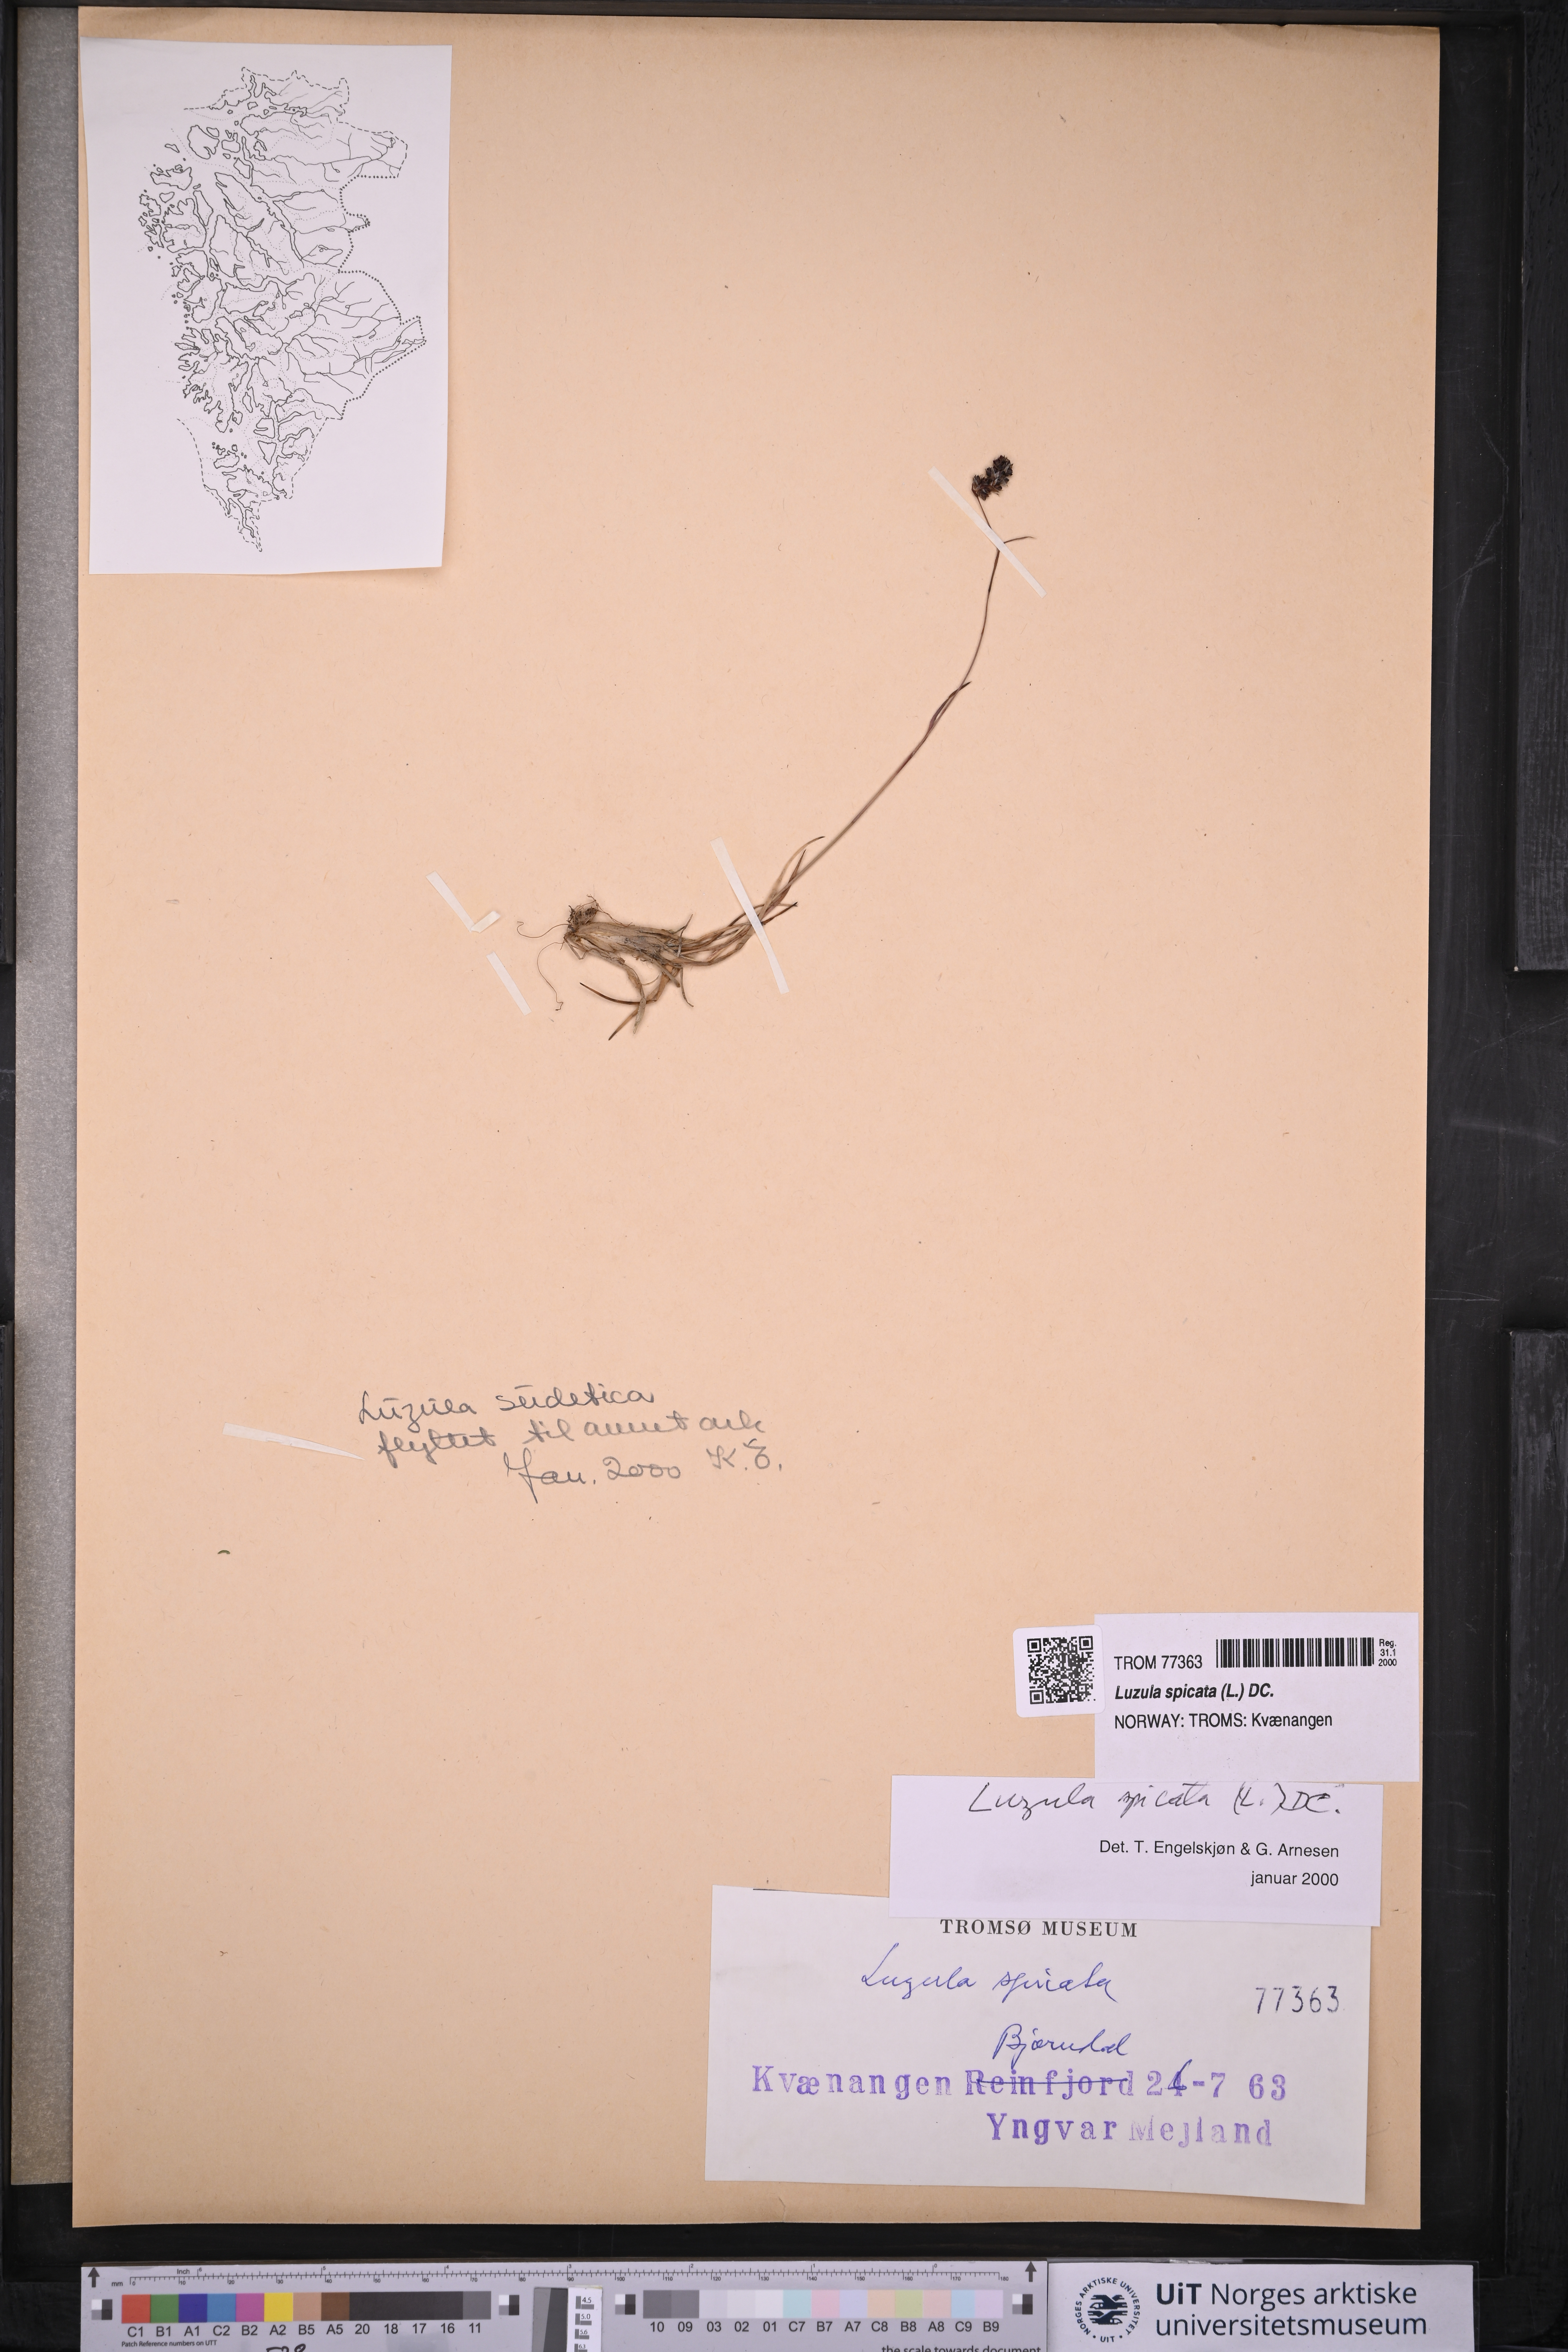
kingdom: Plantae
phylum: Tracheophyta
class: Liliopsida
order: Poales
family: Juncaceae
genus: Luzula
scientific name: Luzula spicata
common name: Spiked wood-rush
